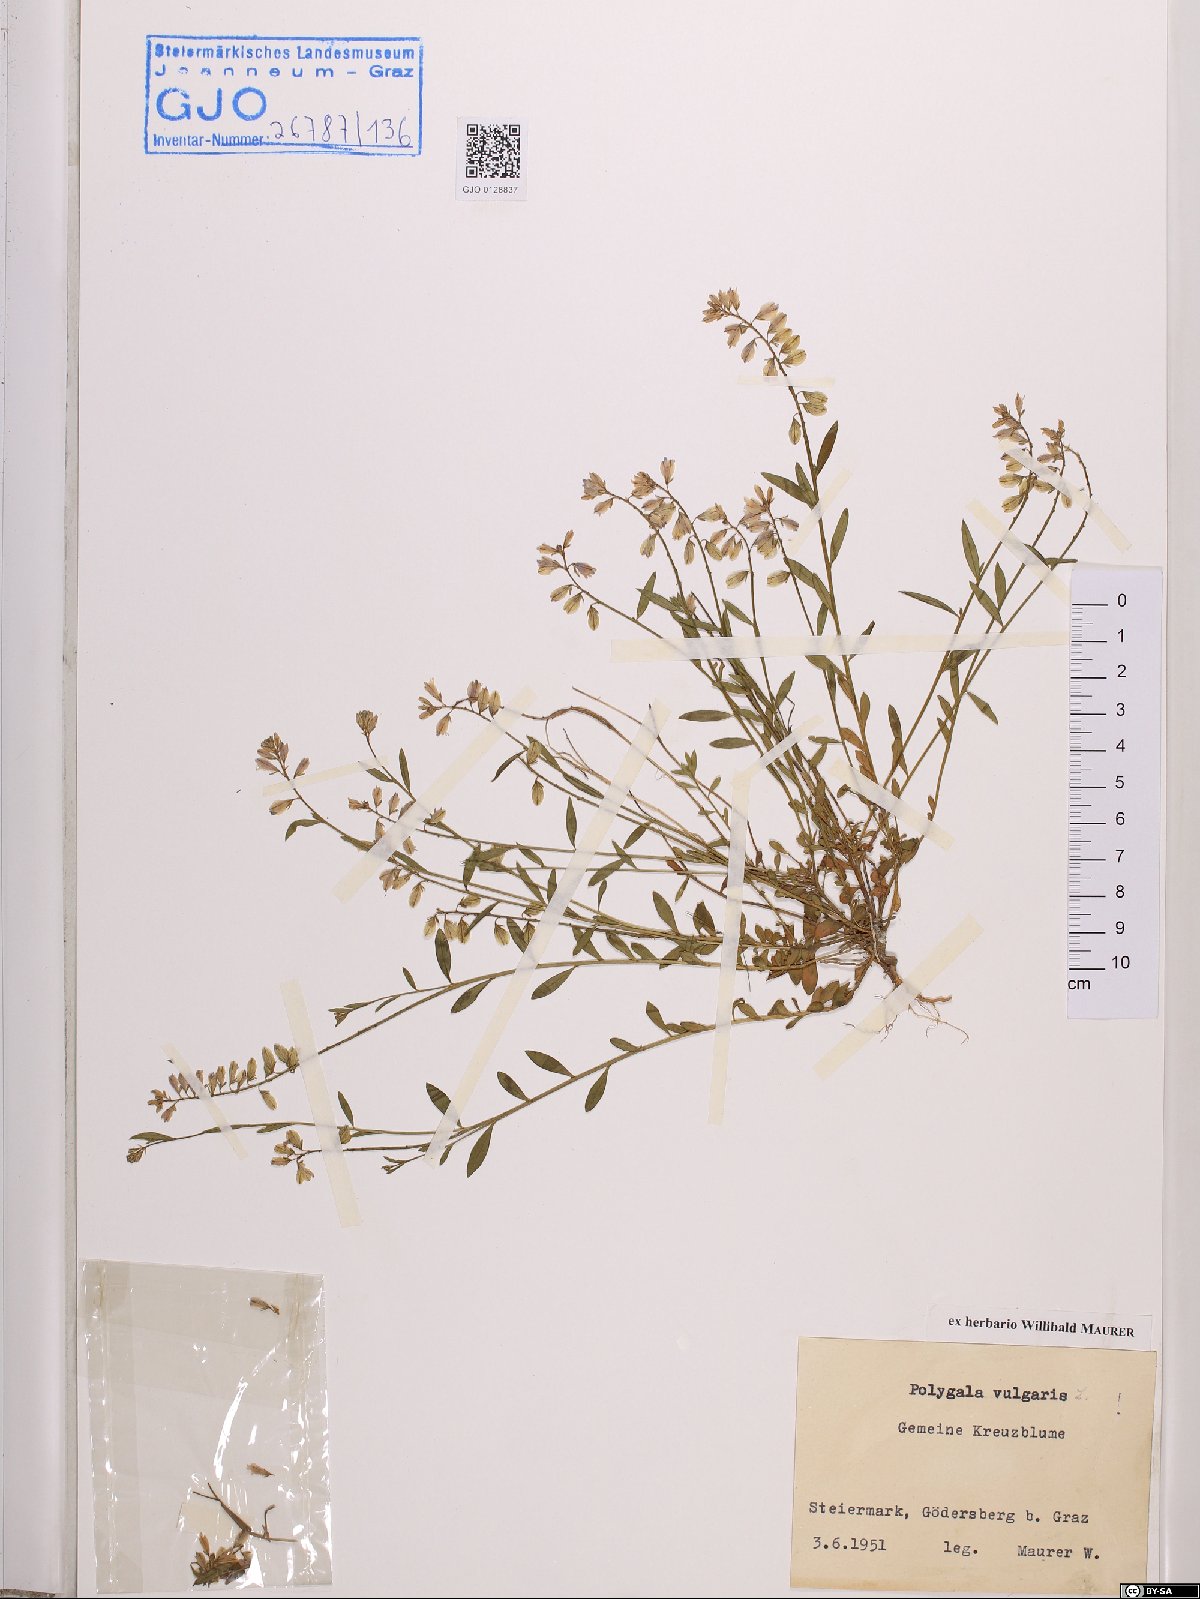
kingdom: Plantae
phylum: Tracheophyta
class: Magnoliopsida
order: Fabales
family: Polygalaceae
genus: Polygala
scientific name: Polygala vulgaris
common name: Common milkwort
